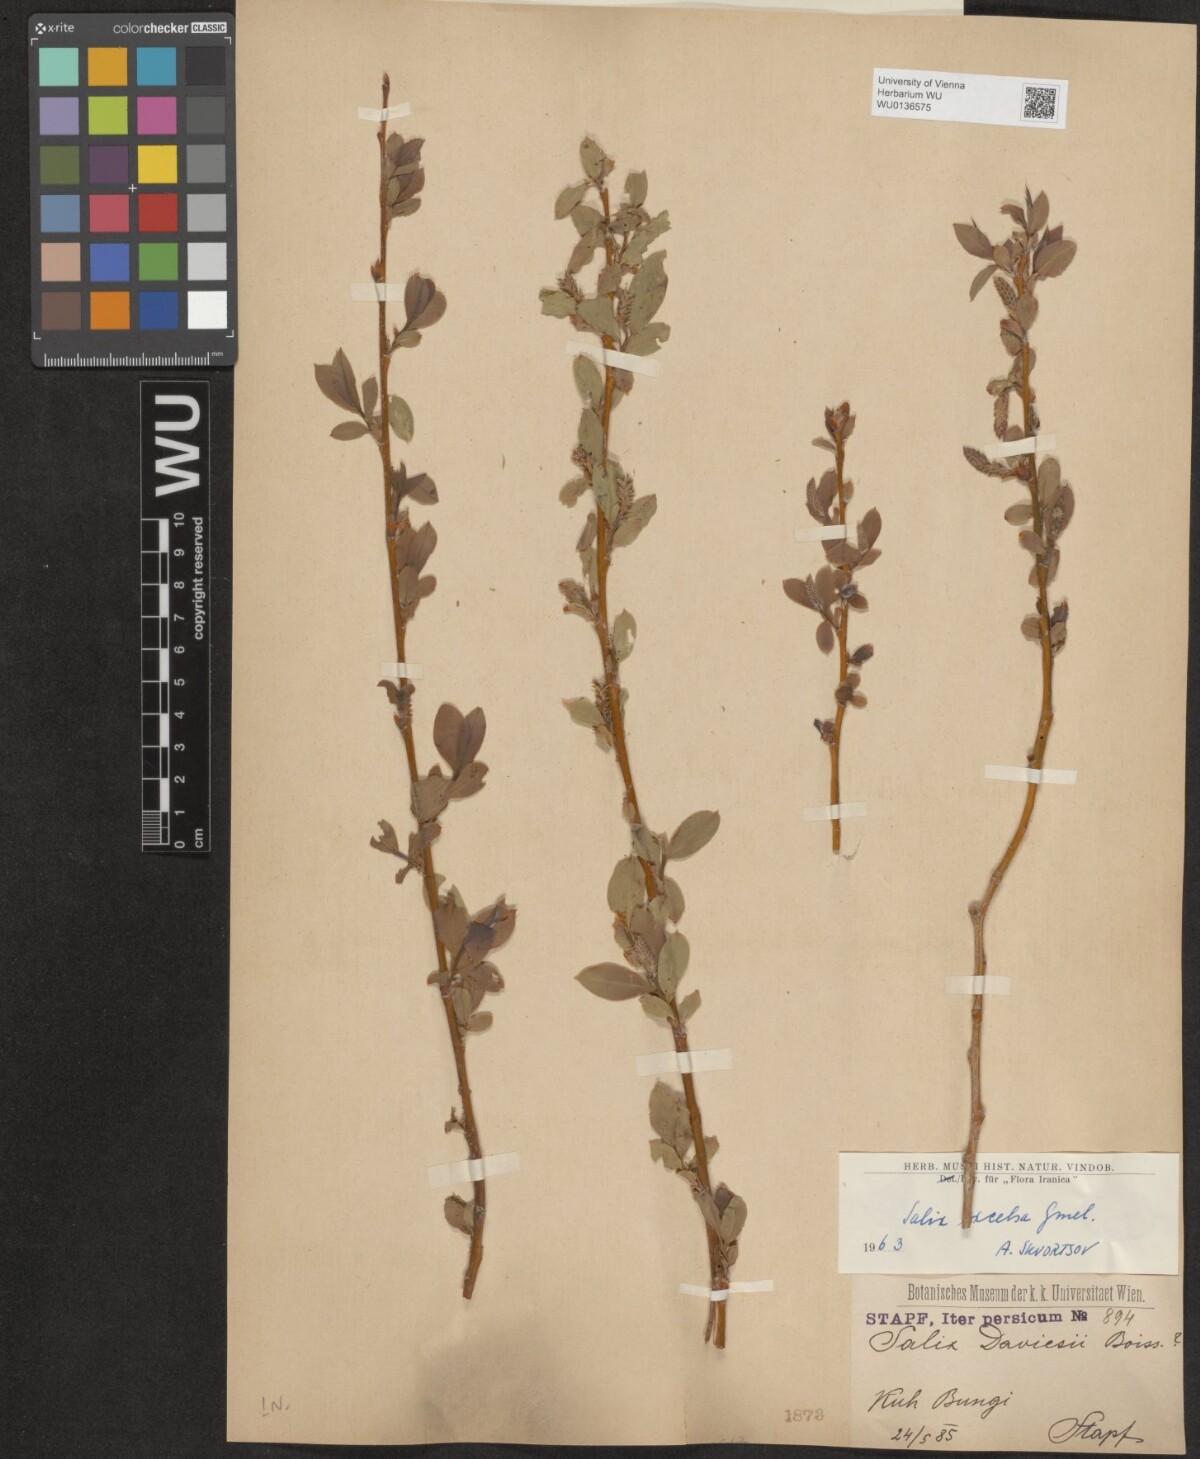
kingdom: Plantae
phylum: Tracheophyta
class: Magnoliopsida
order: Malpighiales
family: Salicaceae
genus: Salix
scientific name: Salix excelsa
